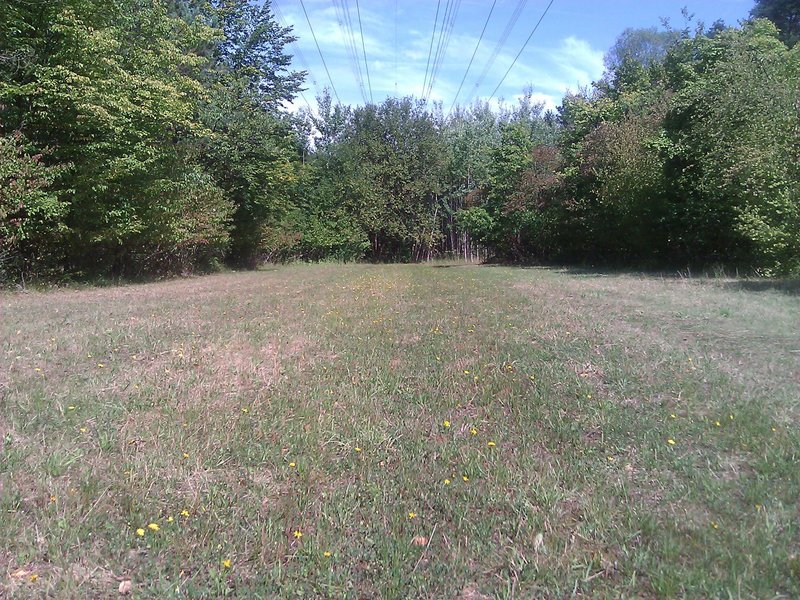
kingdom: Animalia
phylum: Arthropoda
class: Insecta
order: Orthoptera
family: Acrididae
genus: Chorthippus
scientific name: Chorthippus biguttulus
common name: Bow-winged grasshopper
